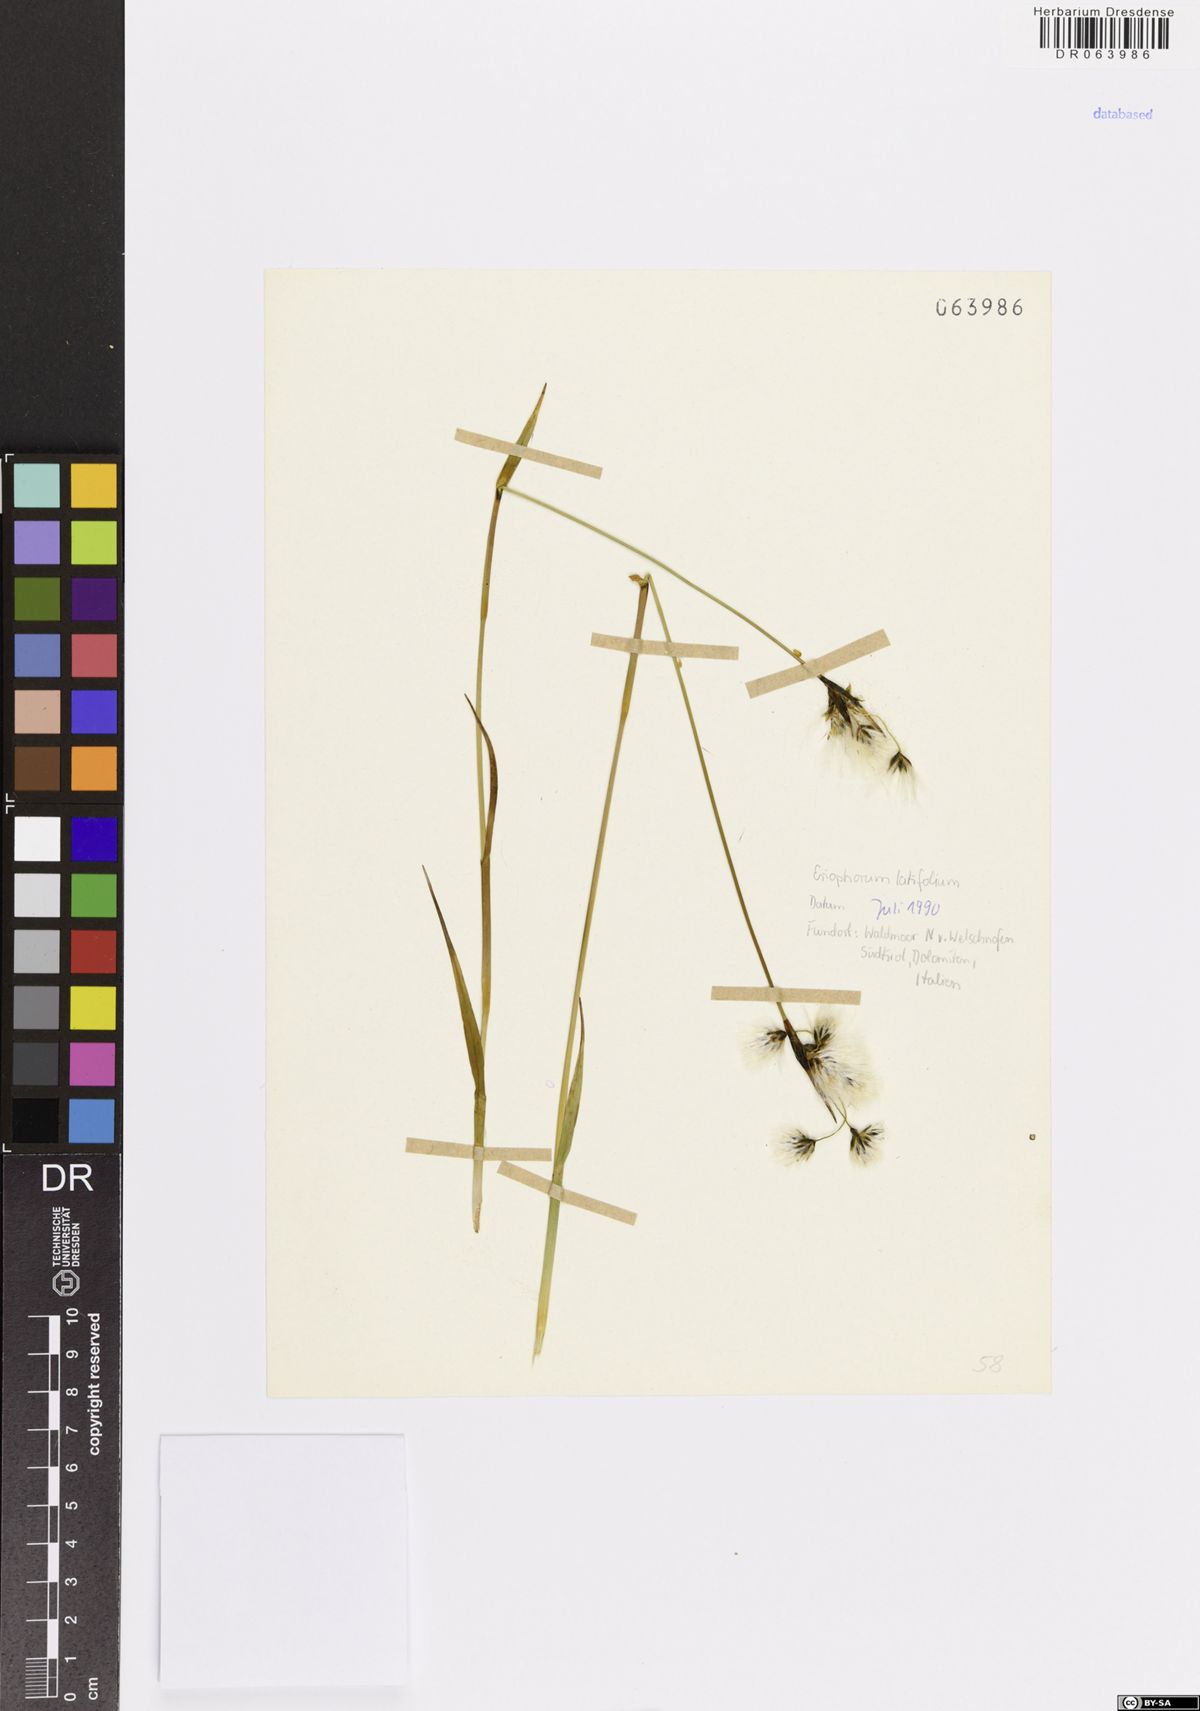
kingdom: Plantae
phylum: Tracheophyta
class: Liliopsida
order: Poales
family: Cyperaceae
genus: Eriophorum
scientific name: Eriophorum latifolium
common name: Broad-leaved cottongrass
